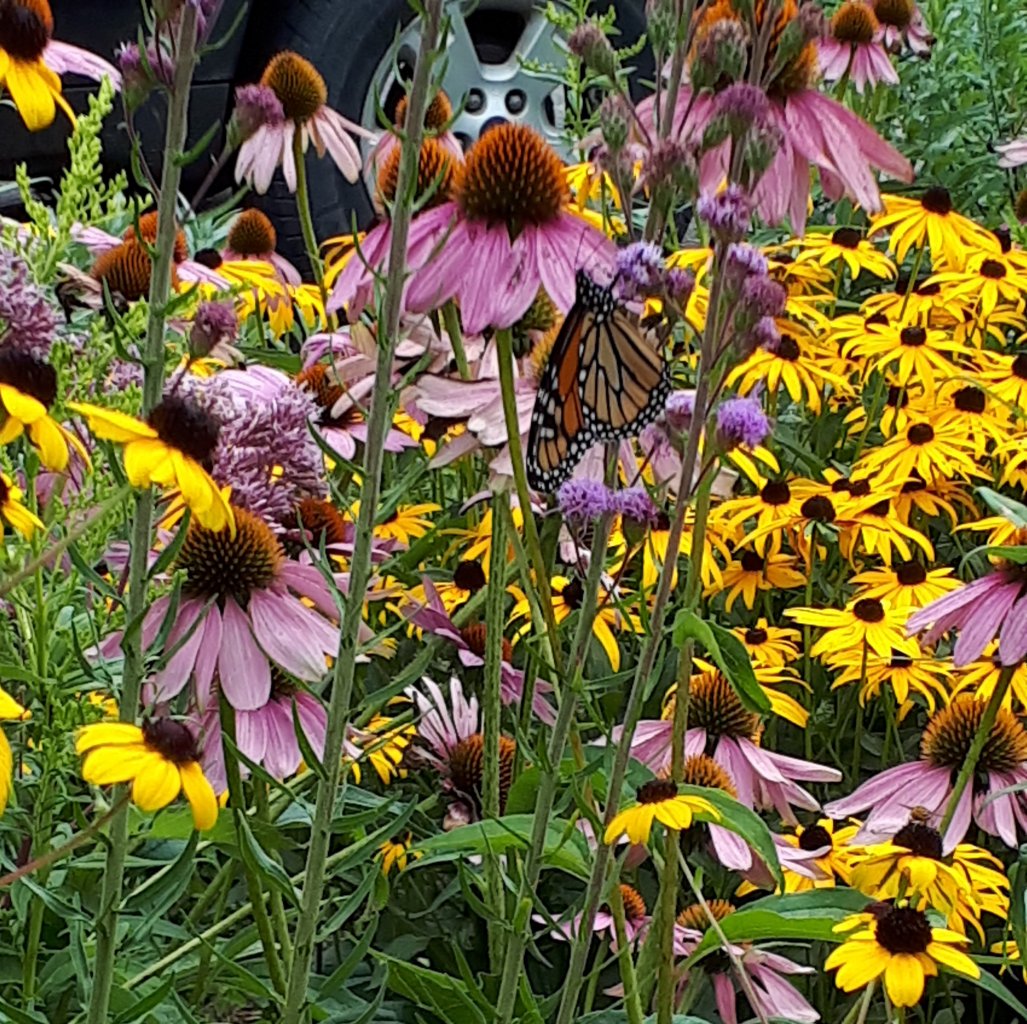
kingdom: Animalia
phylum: Arthropoda
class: Insecta
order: Lepidoptera
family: Nymphalidae
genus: Danaus
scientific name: Danaus plexippus
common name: Monarch
